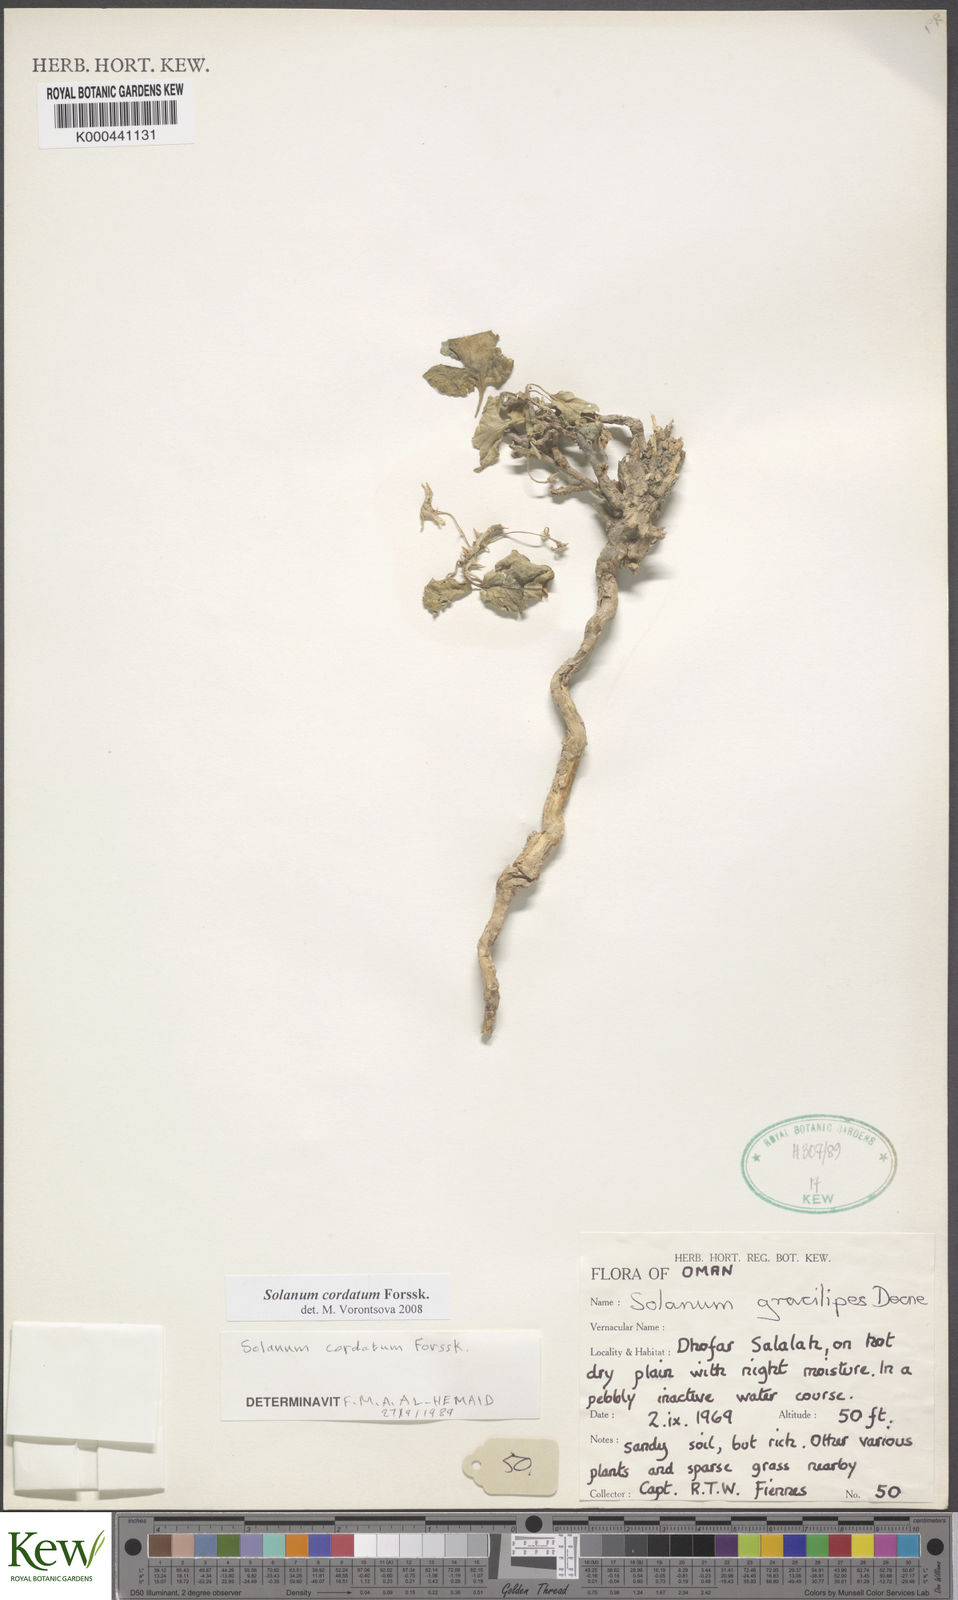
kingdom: Plantae
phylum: Tracheophyta
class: Magnoliopsida
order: Solanales
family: Solanaceae
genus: Solanum
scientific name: Solanum cordatum
